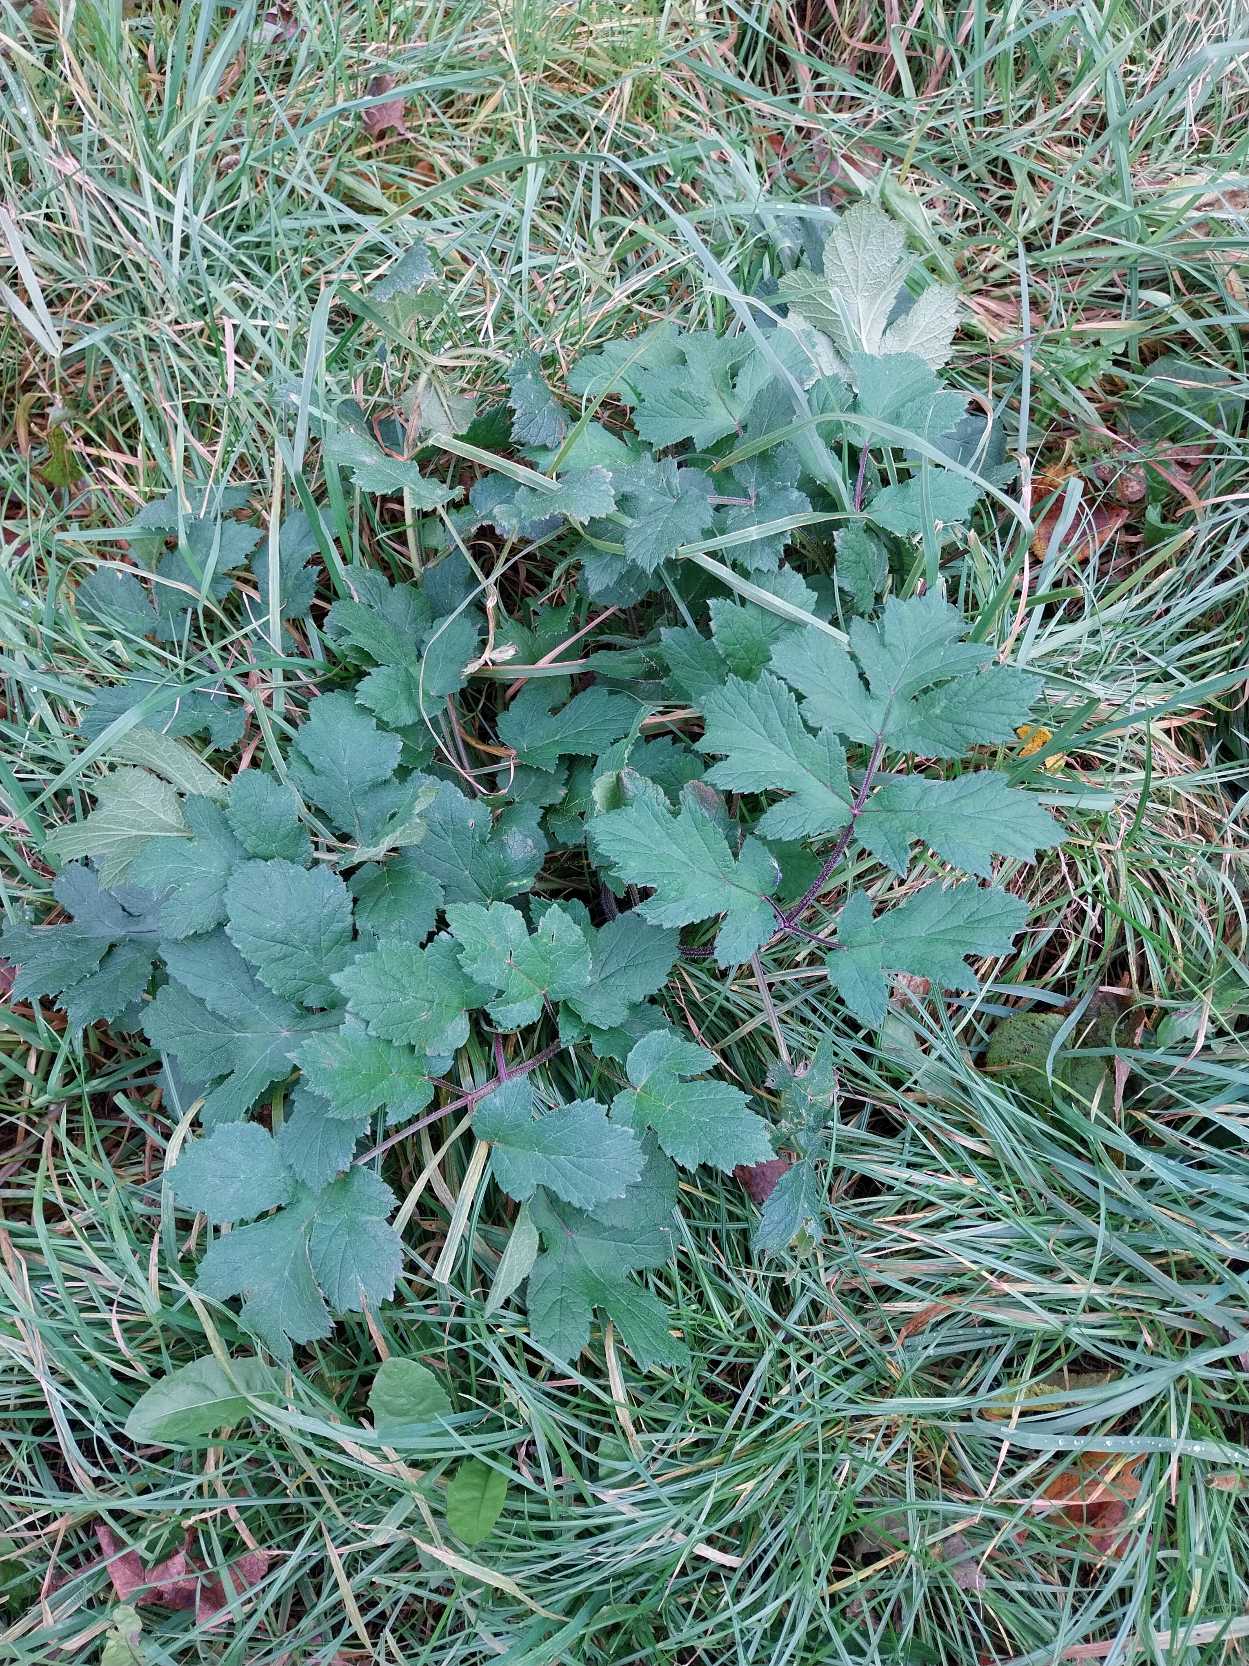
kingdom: Plantae
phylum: Tracheophyta
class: Magnoliopsida
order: Apiales
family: Apiaceae
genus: Heracleum
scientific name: Heracleum sphondylium
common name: Almindelig bjørneklo
